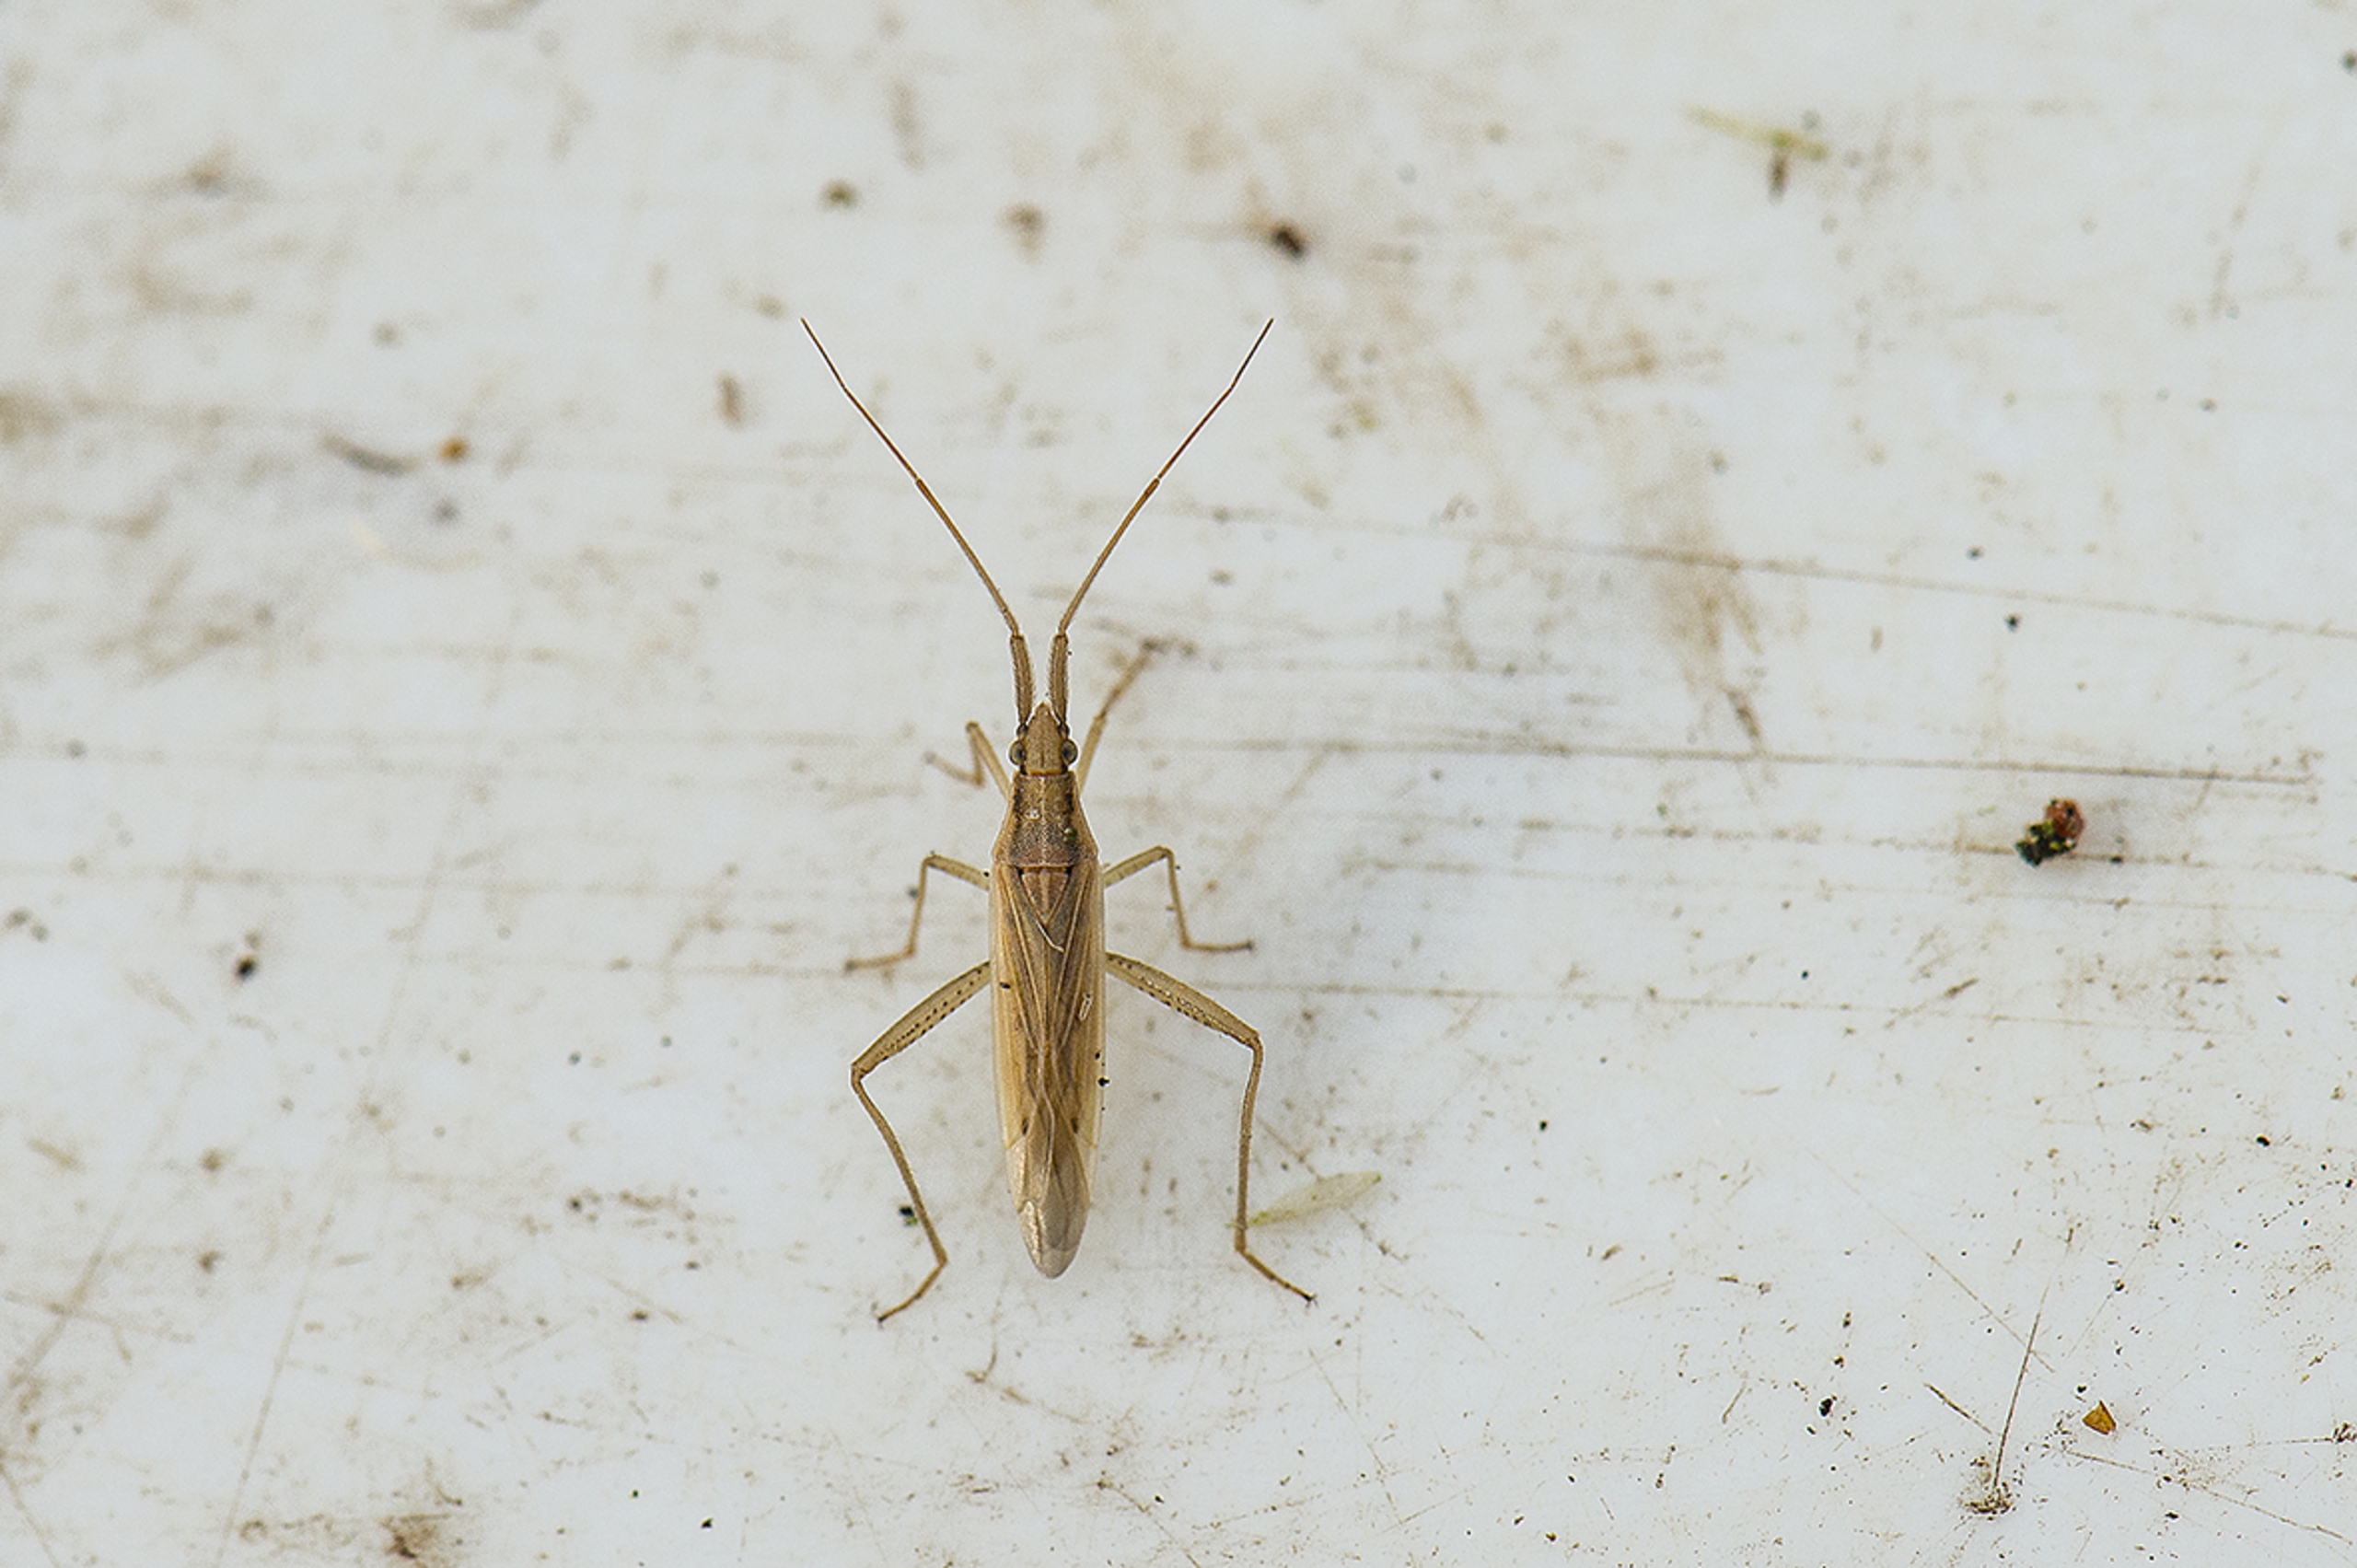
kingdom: Animalia
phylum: Arthropoda
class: Insecta
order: Hemiptera
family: Miridae
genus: Stenodema
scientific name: Stenodema laevigata
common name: Slank græstæge
